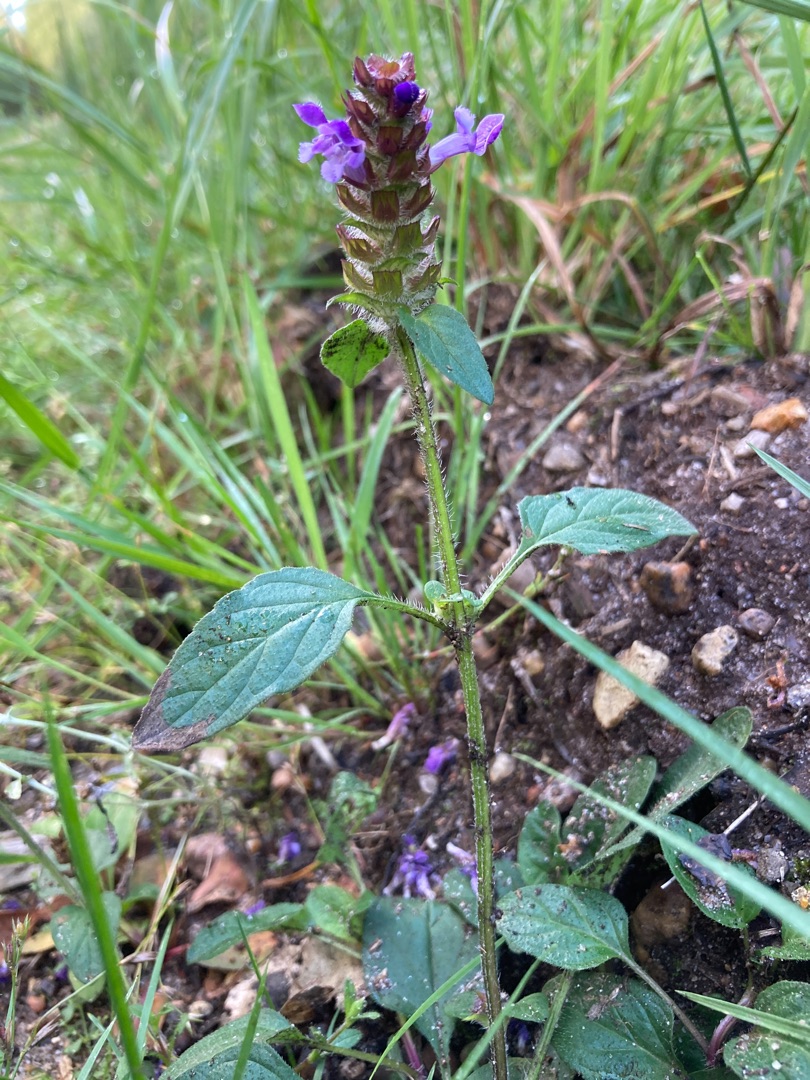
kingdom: Plantae
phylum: Tracheophyta
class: Magnoliopsida
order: Lamiales
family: Lamiaceae
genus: Prunella
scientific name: Prunella vulgaris
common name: Almindelig brunelle
